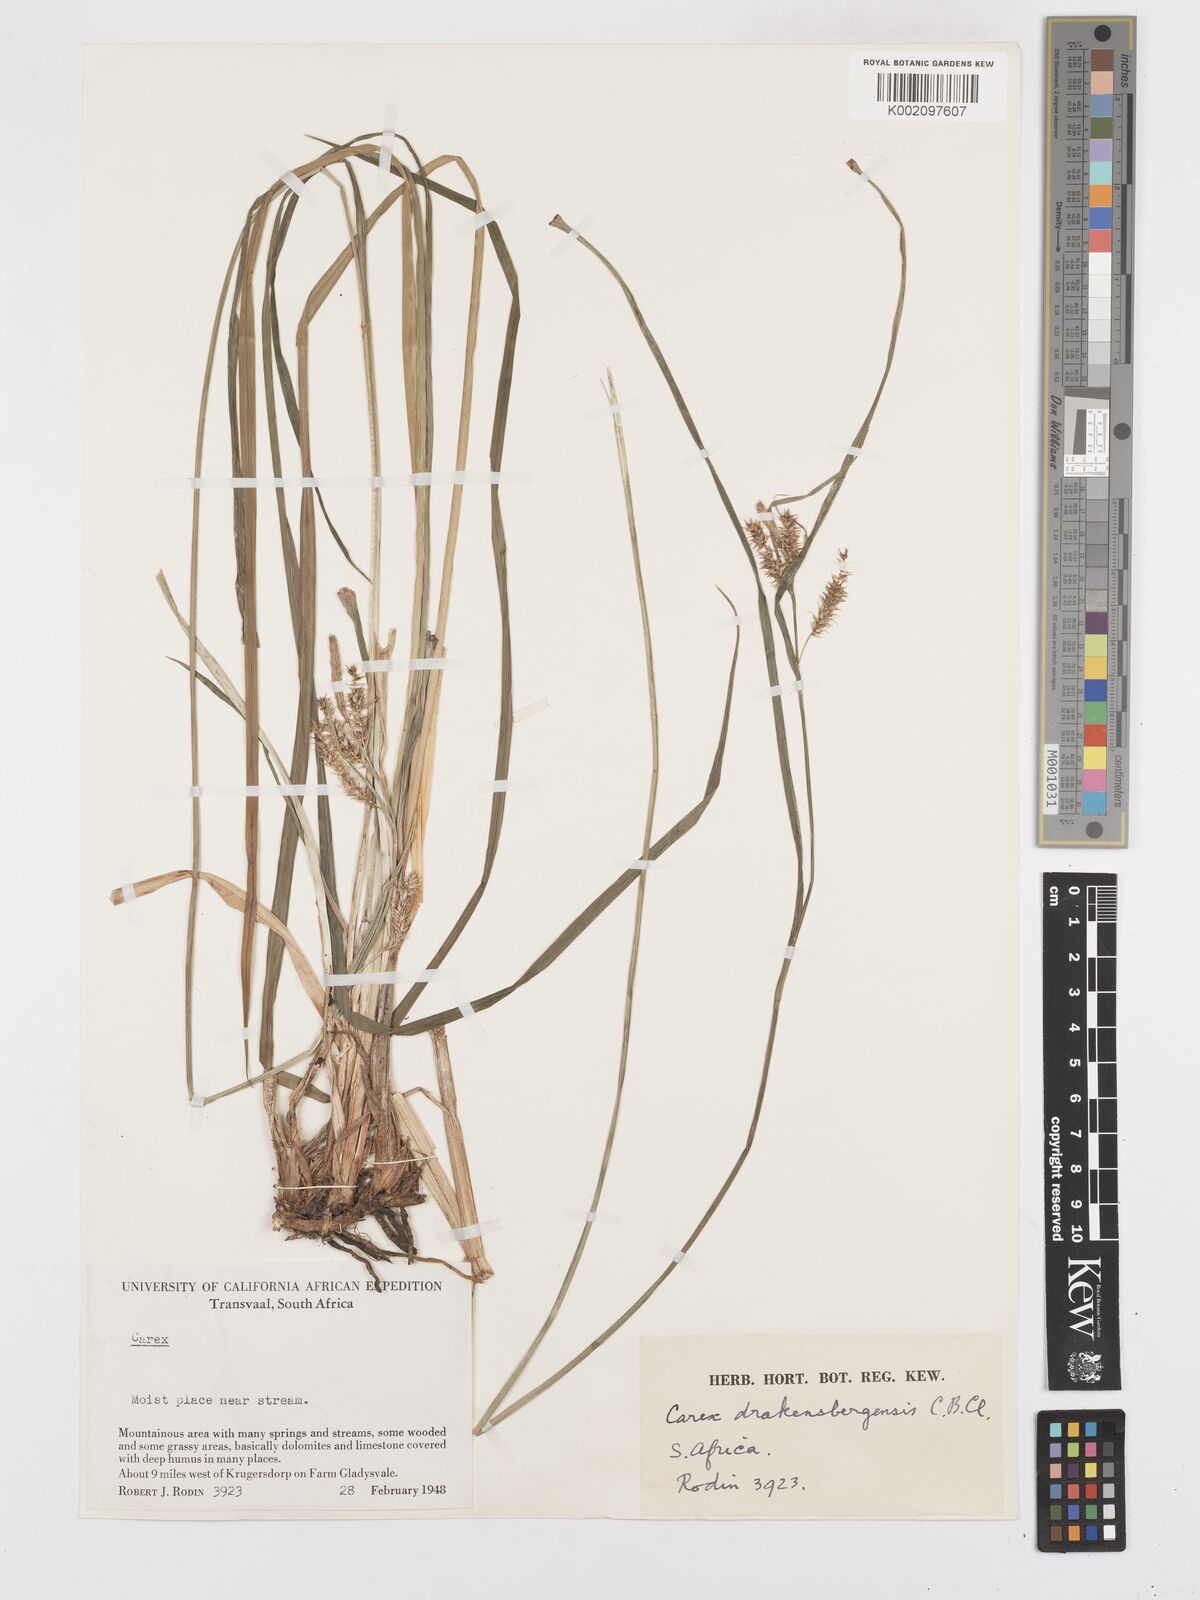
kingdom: Plantae
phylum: Tracheophyta
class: Liliopsida
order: Poales
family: Cyperaceae
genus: Carex
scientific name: Carex cognata
